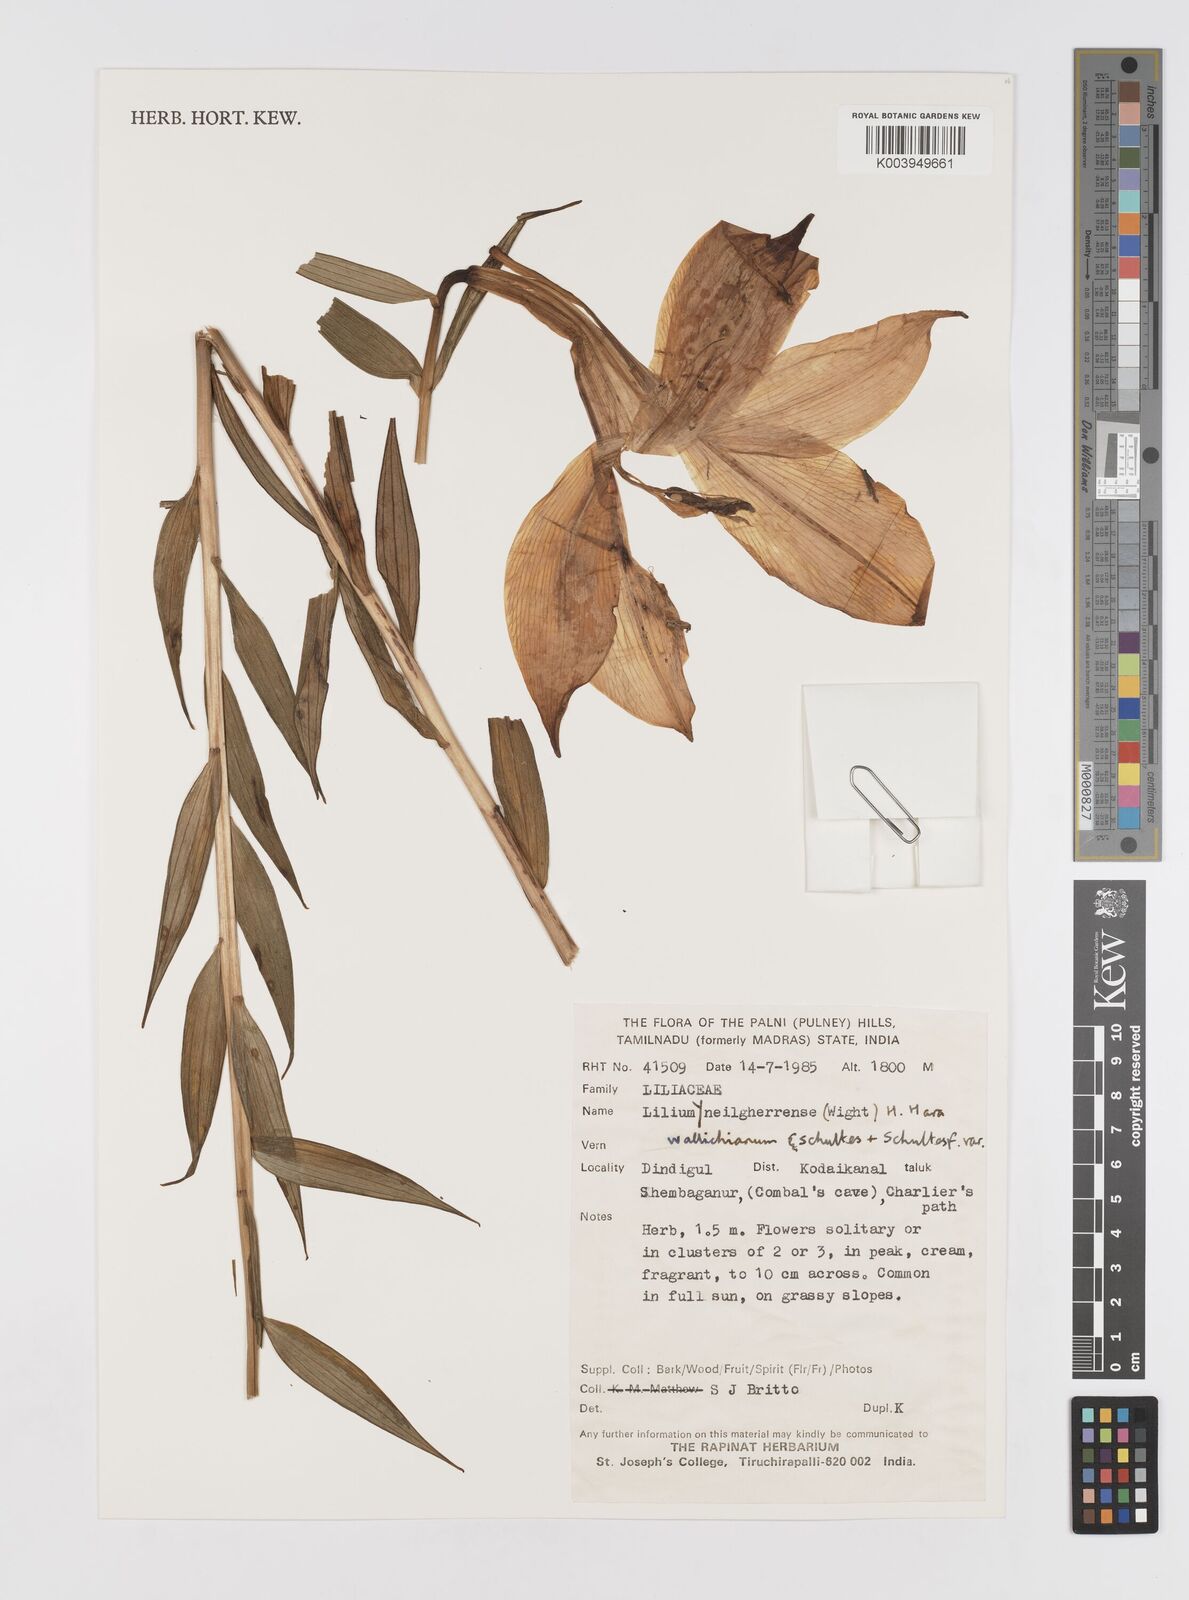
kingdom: Plantae
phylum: Tracheophyta
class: Liliopsida
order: Liliales
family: Liliaceae
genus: Lilium
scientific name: Lilium wallichianum
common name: Wallich's lily
